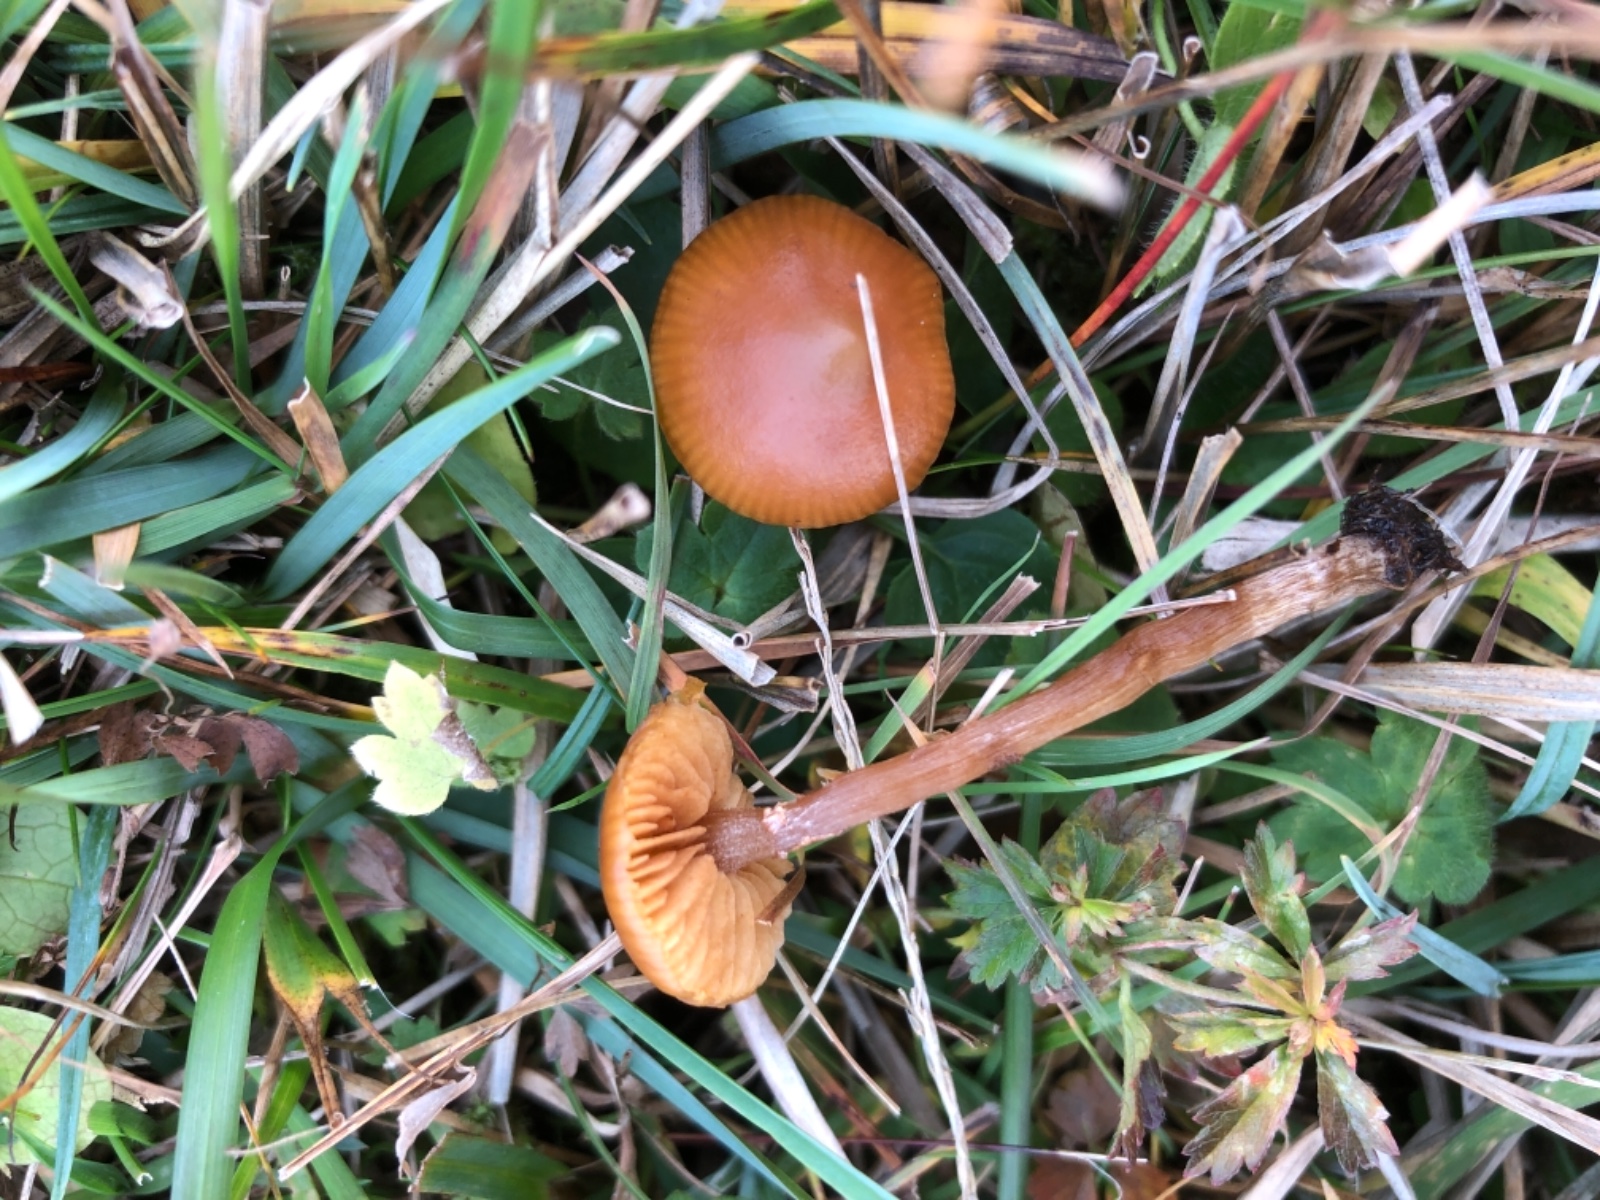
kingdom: Fungi
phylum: Basidiomycota
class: Agaricomycetes
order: Agaricales
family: Hymenogastraceae
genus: Galerina
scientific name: Galerina
